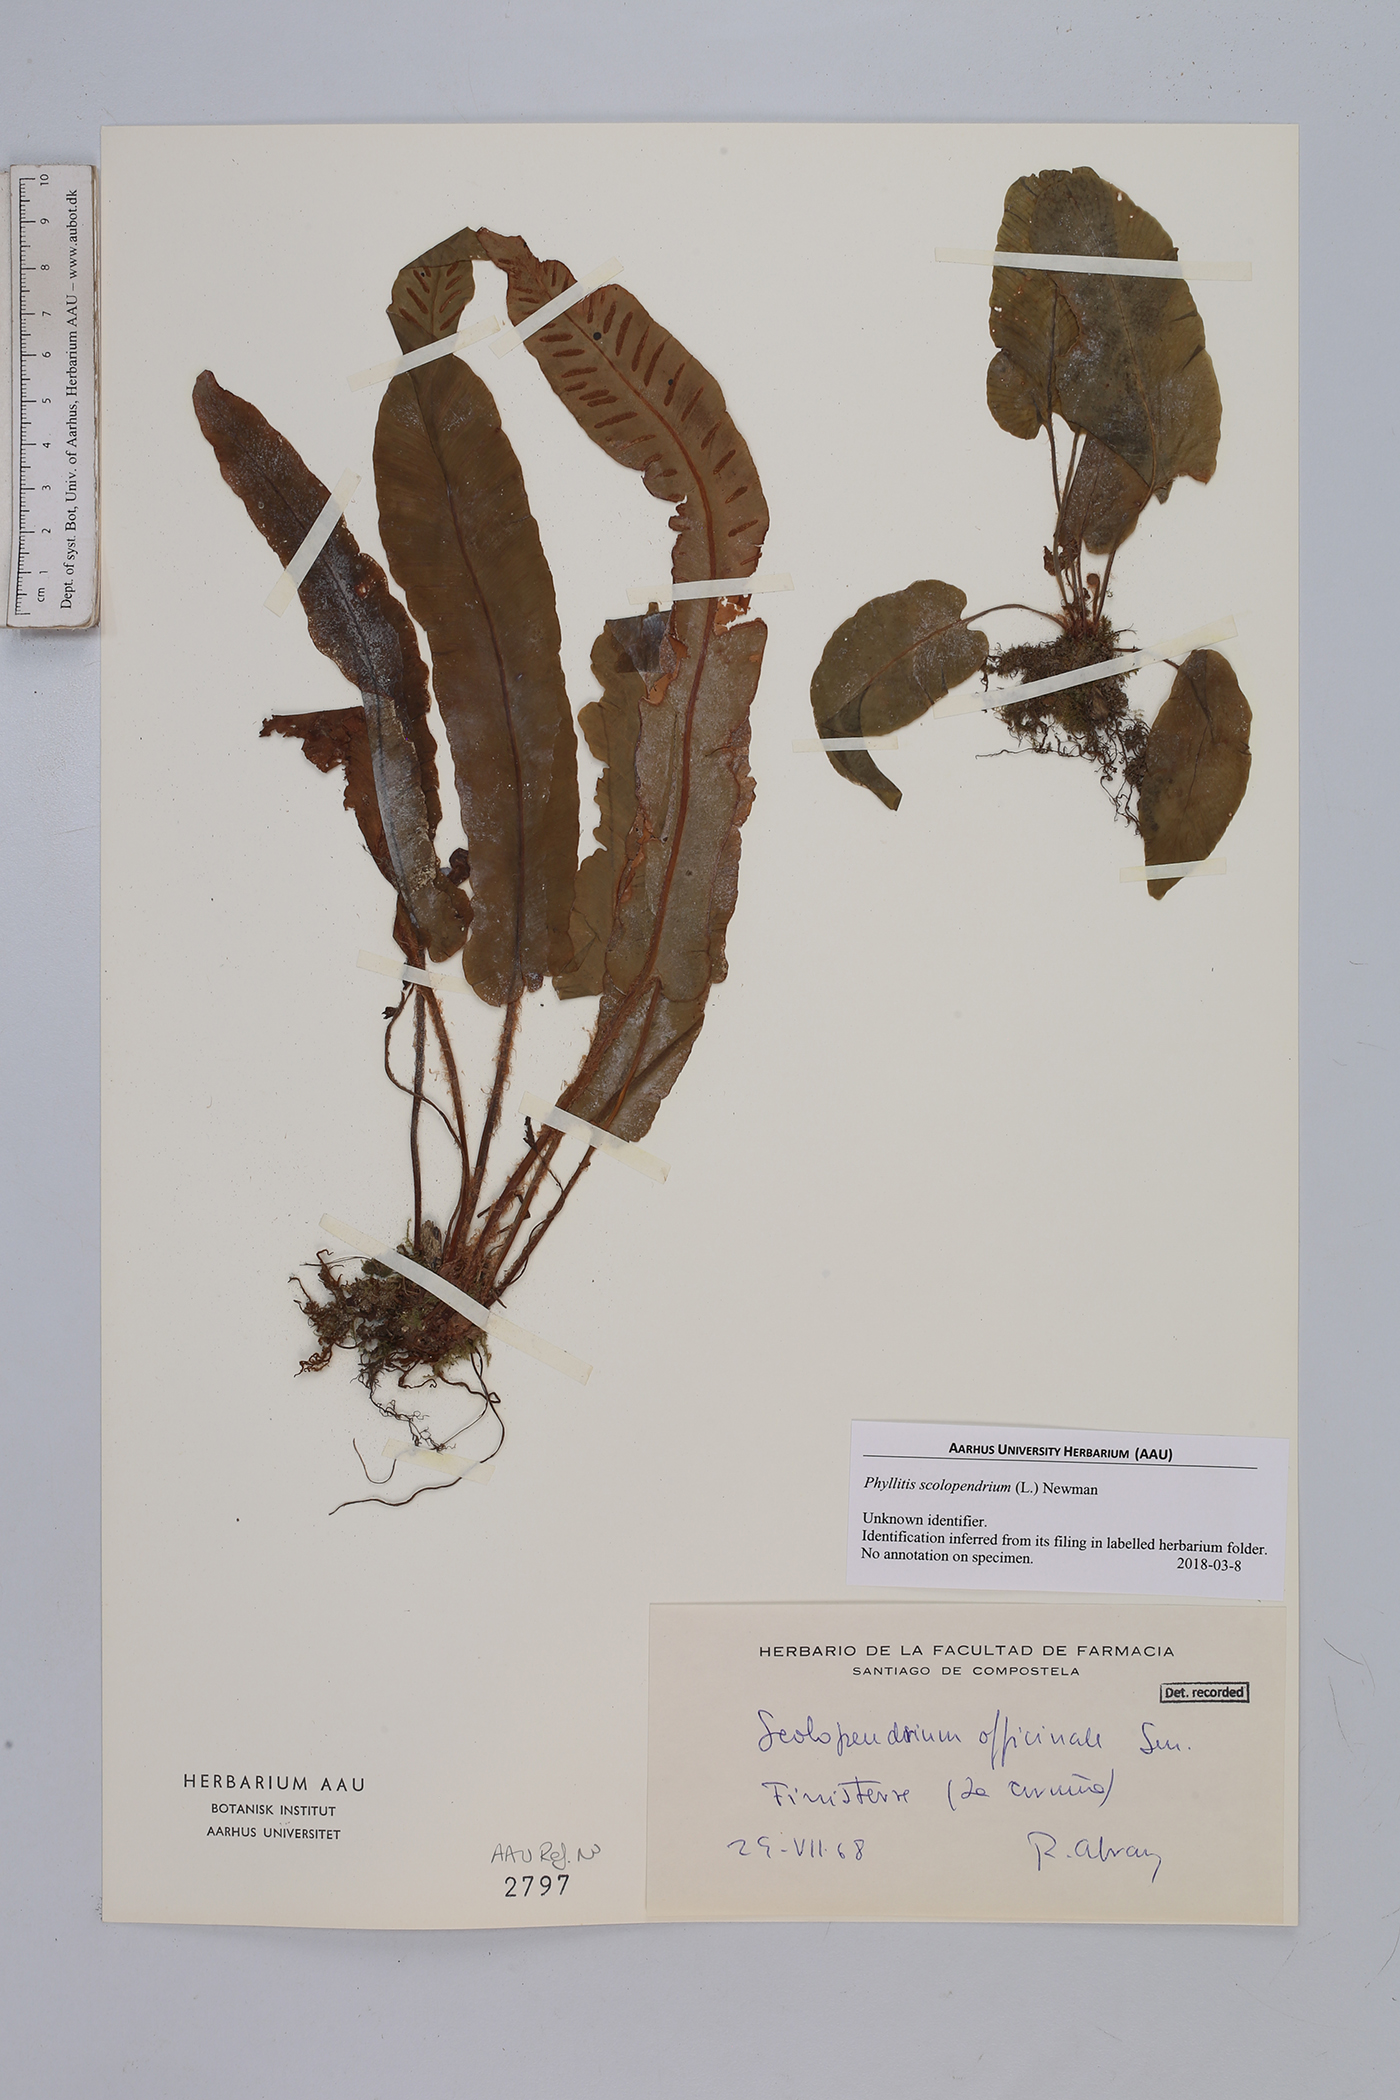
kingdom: Plantae
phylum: Tracheophyta
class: Polypodiopsida
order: Polypodiales
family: Aspleniaceae
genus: Asplenium
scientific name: Asplenium scolopendrium
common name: Hart's-tongue fern
